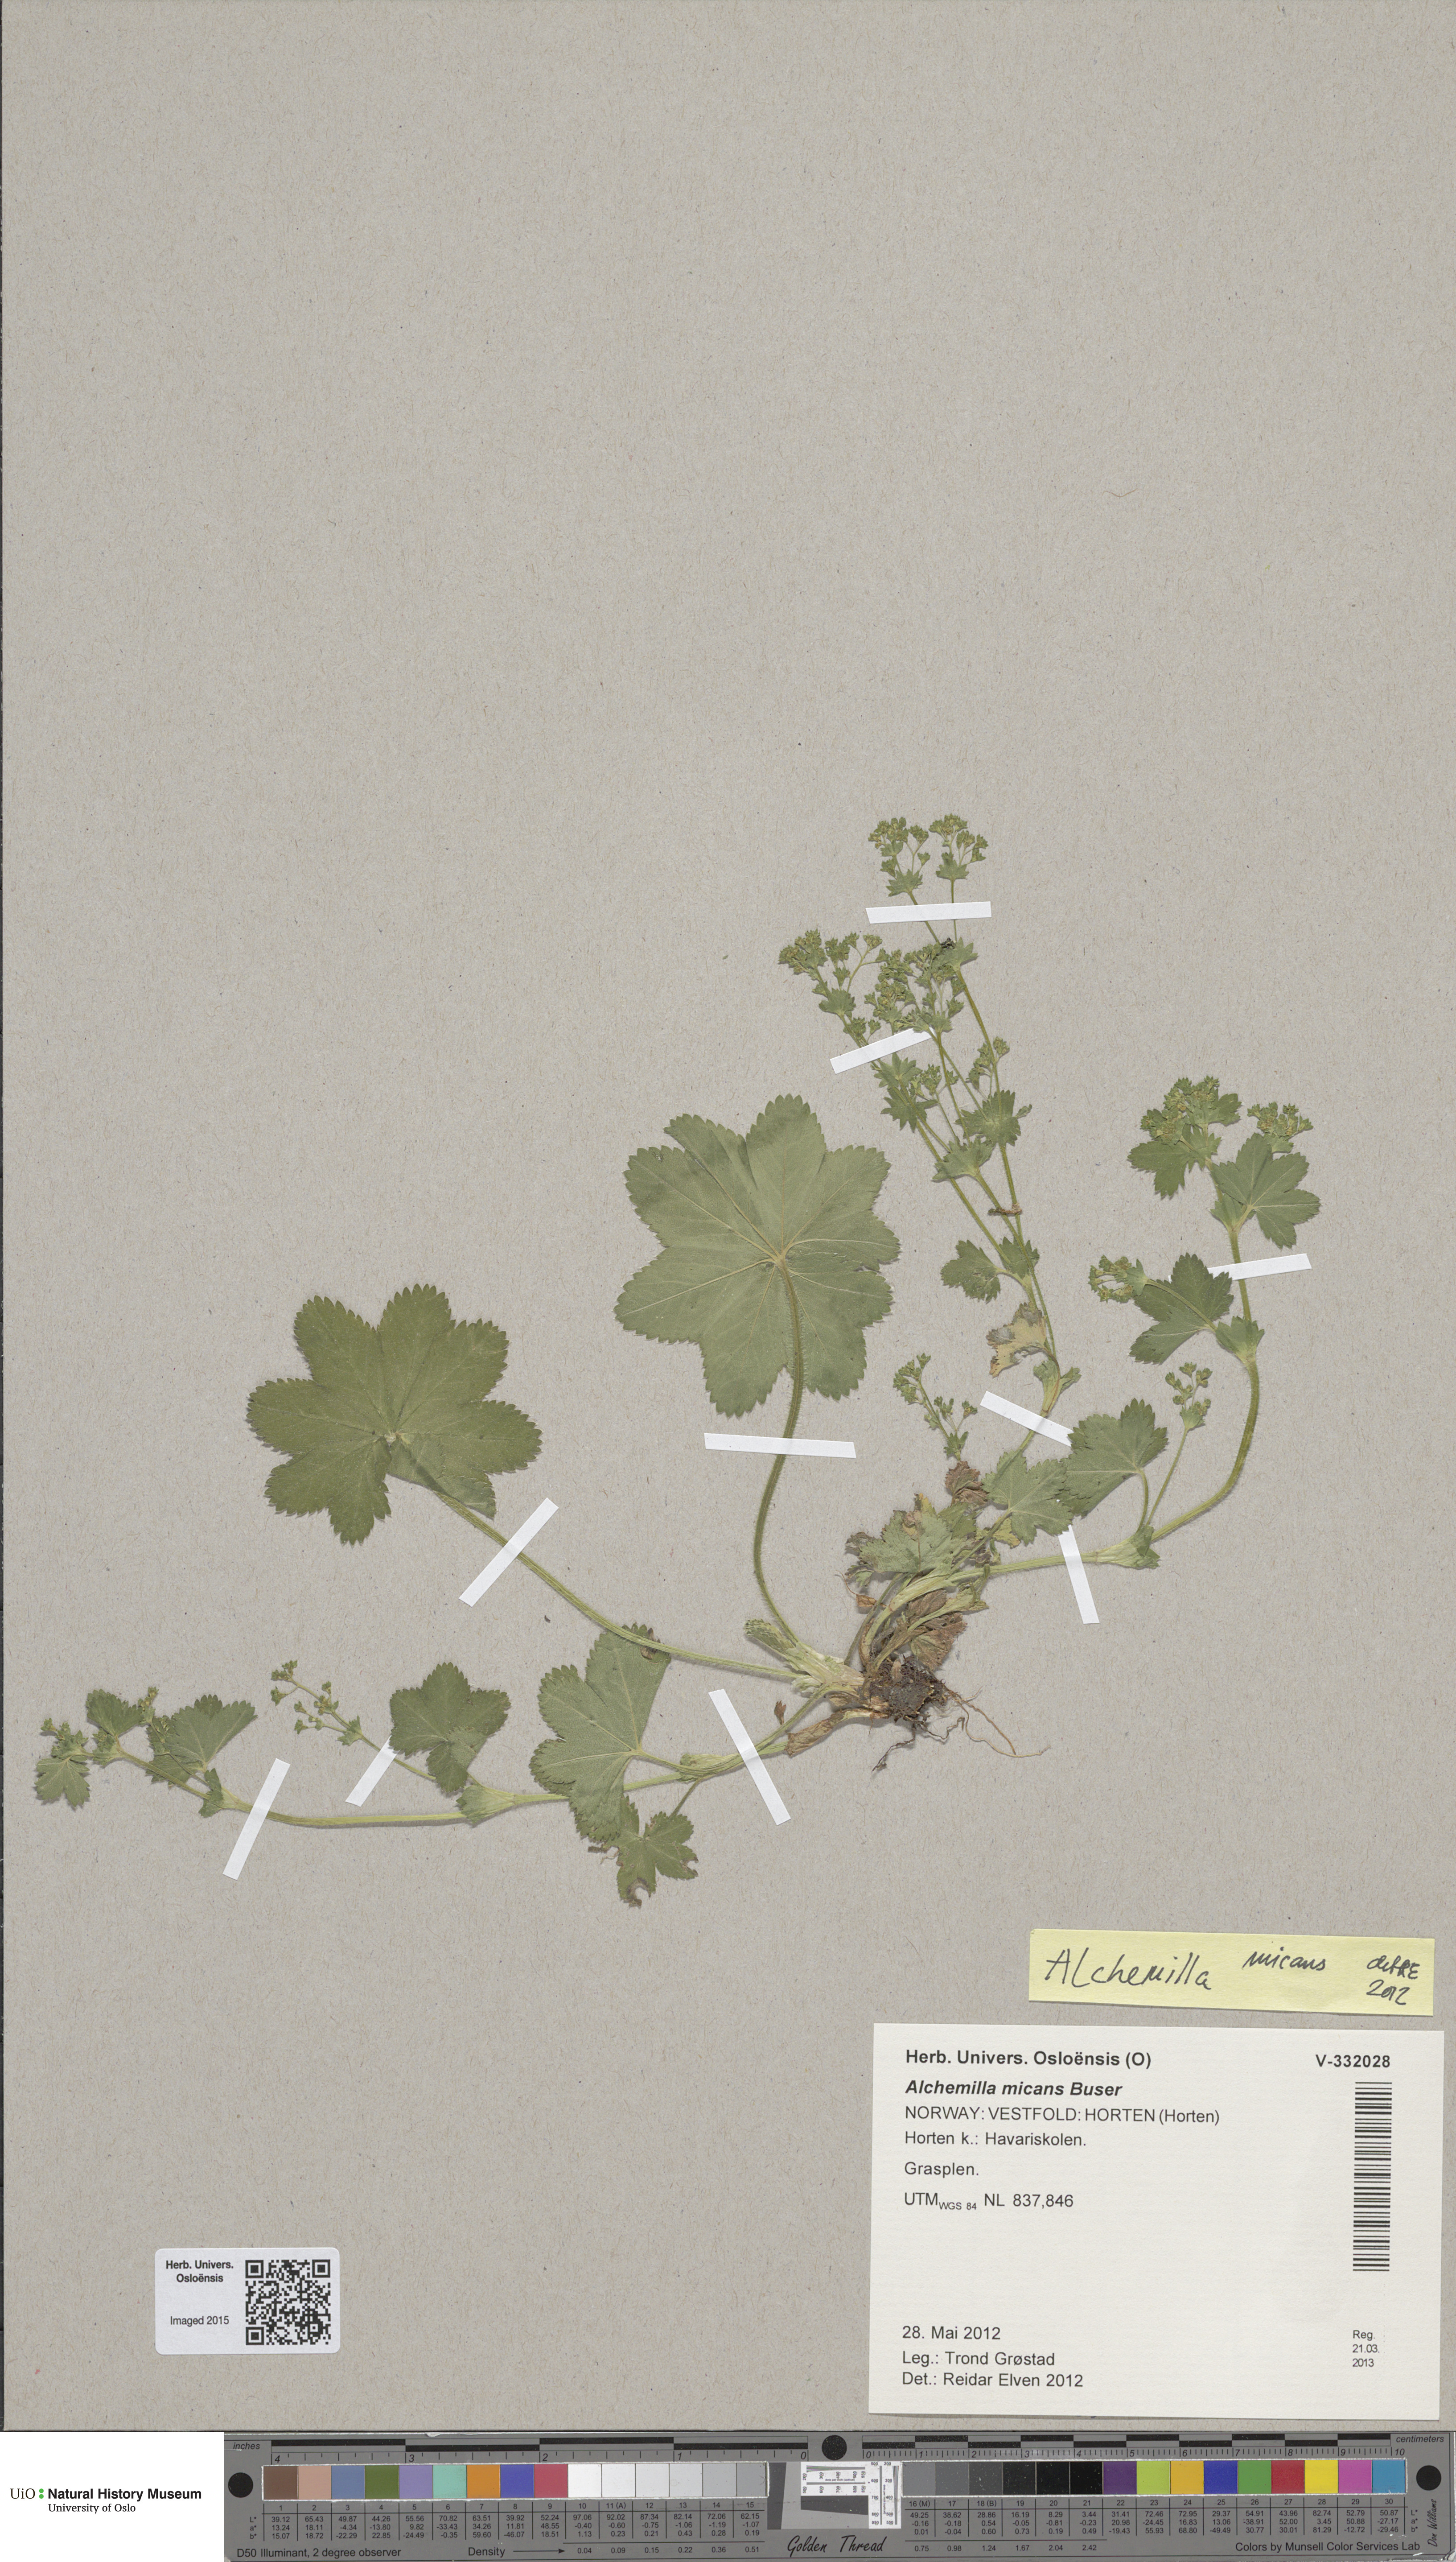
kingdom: Plantae
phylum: Tracheophyta
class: Magnoliopsida
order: Rosales
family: Rosaceae
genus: Alchemilla
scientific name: Alchemilla micans
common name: Gleaming lady's mantle
